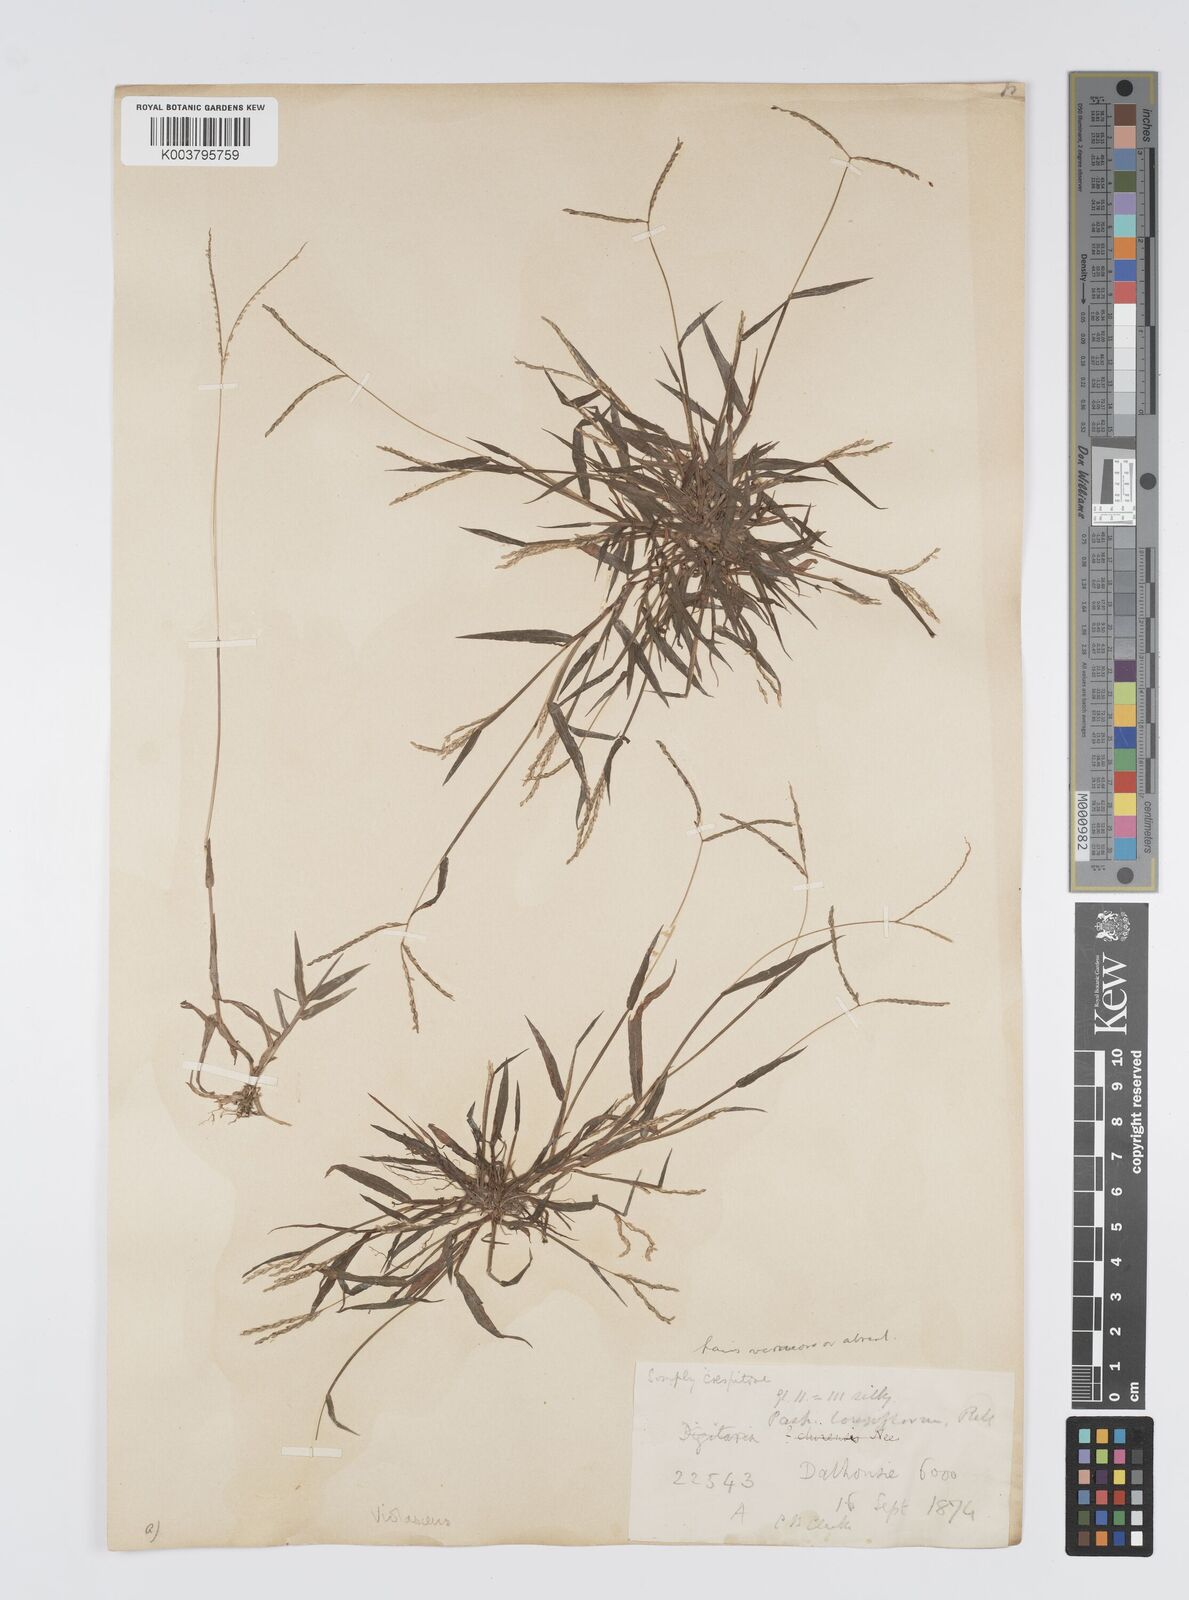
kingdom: Plantae
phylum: Tracheophyta
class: Liliopsida
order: Poales
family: Poaceae
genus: Digitaria
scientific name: Digitaria violascens
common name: Violet crabgrass
